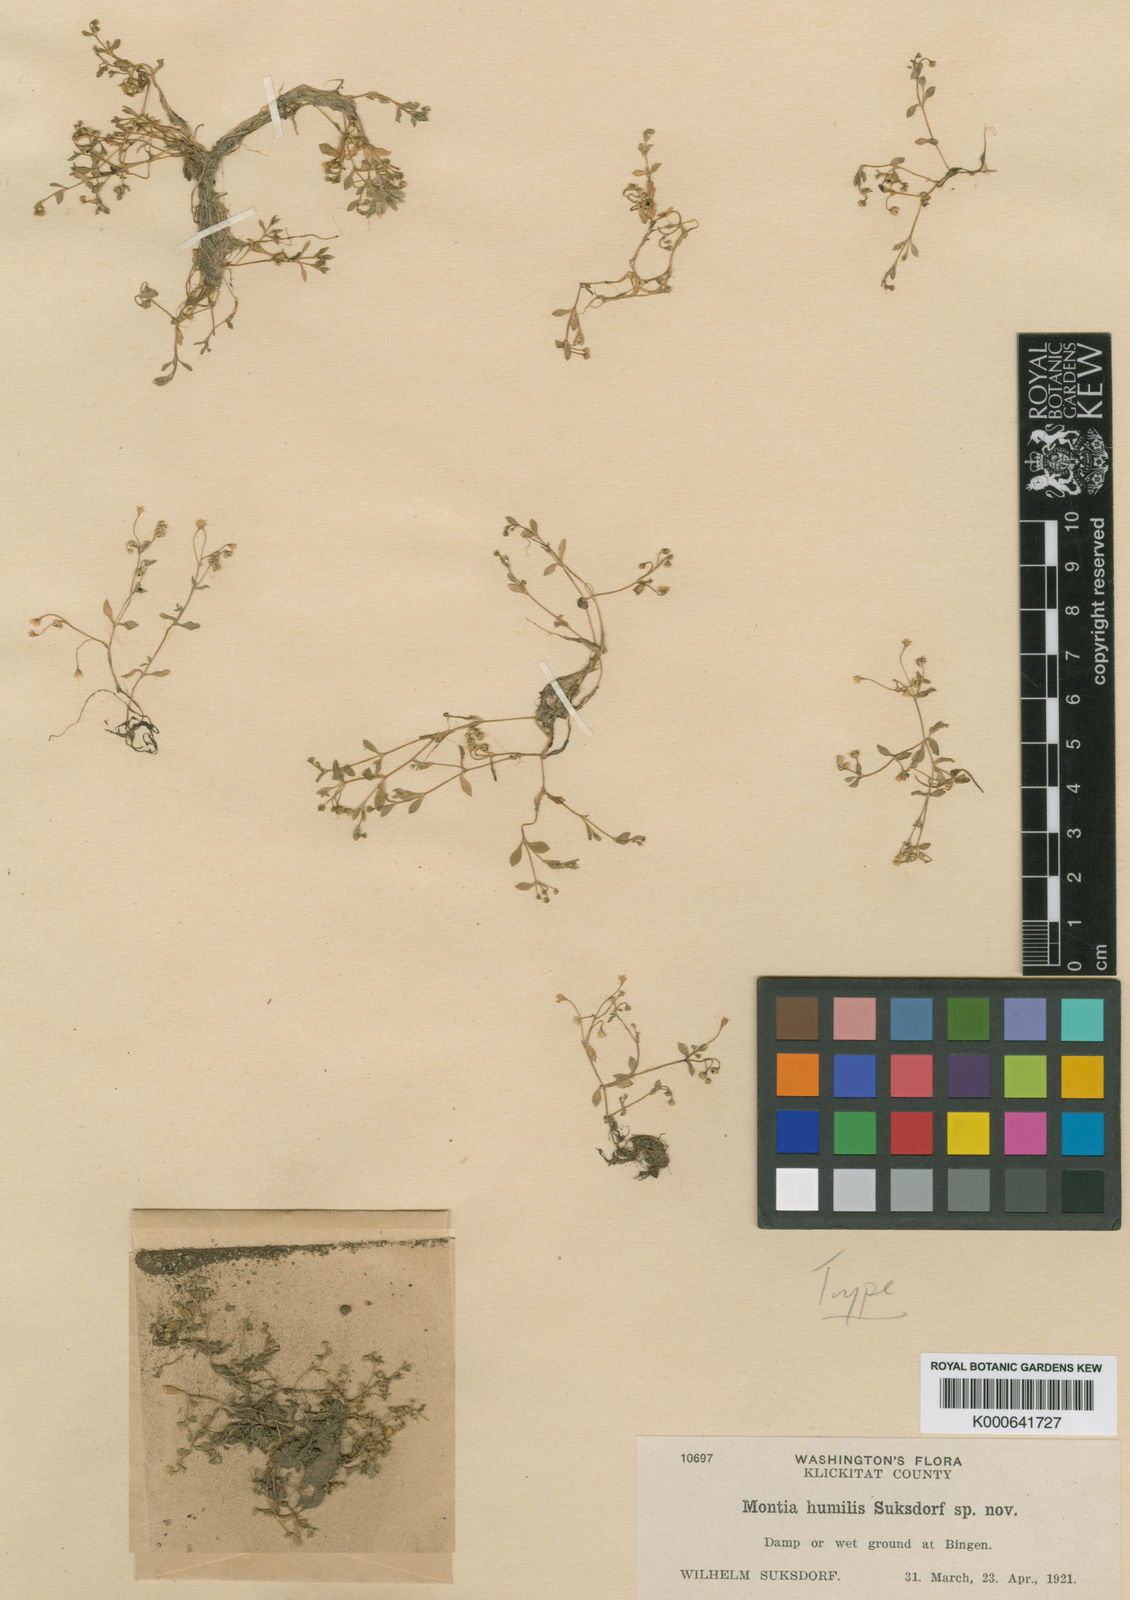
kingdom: Plantae
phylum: Tracheophyta
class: Magnoliopsida
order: Caryophyllales
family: Montiaceae
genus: Montia
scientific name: Montia fontana
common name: Blinks
